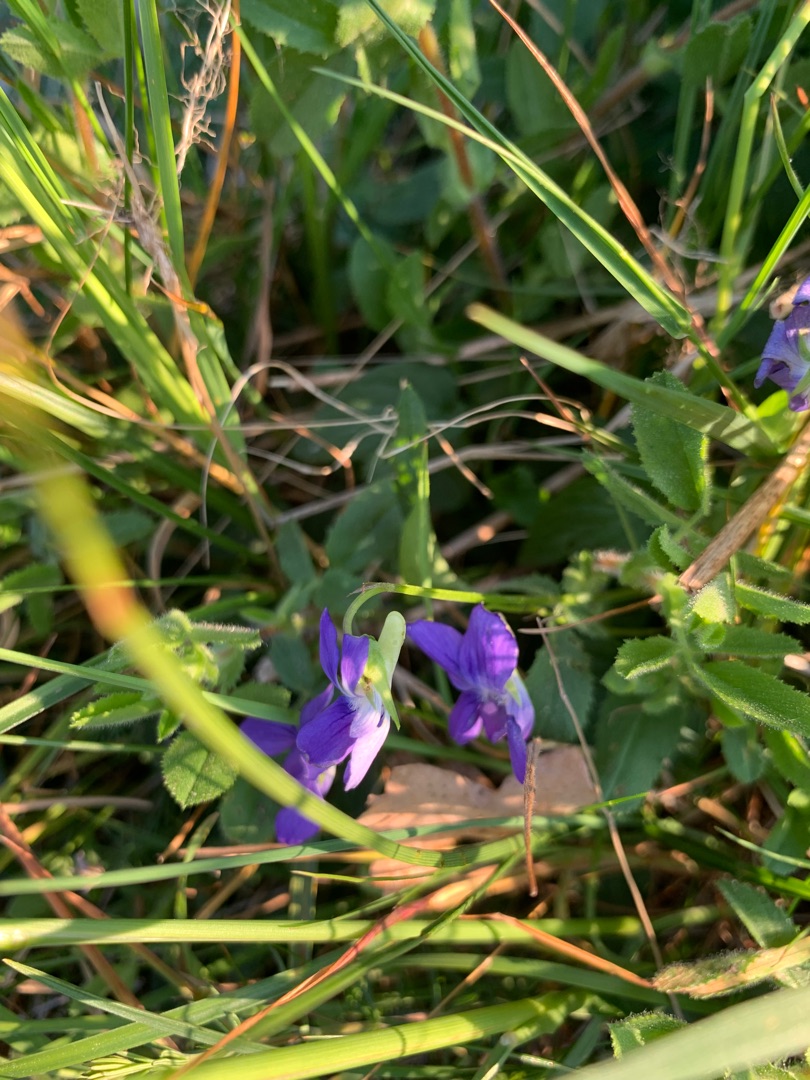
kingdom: Plantae
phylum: Tracheophyta
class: Magnoliopsida
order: Malpighiales
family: Violaceae
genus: Viola
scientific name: Viola canina
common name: Hunde-viol
